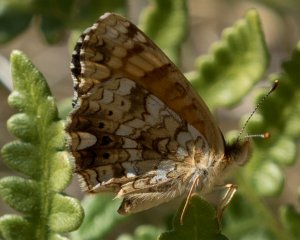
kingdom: Animalia
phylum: Arthropoda
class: Insecta
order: Lepidoptera
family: Nymphalidae
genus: Eresia
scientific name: Eresia aveyrona
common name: Mylitta Crescent
